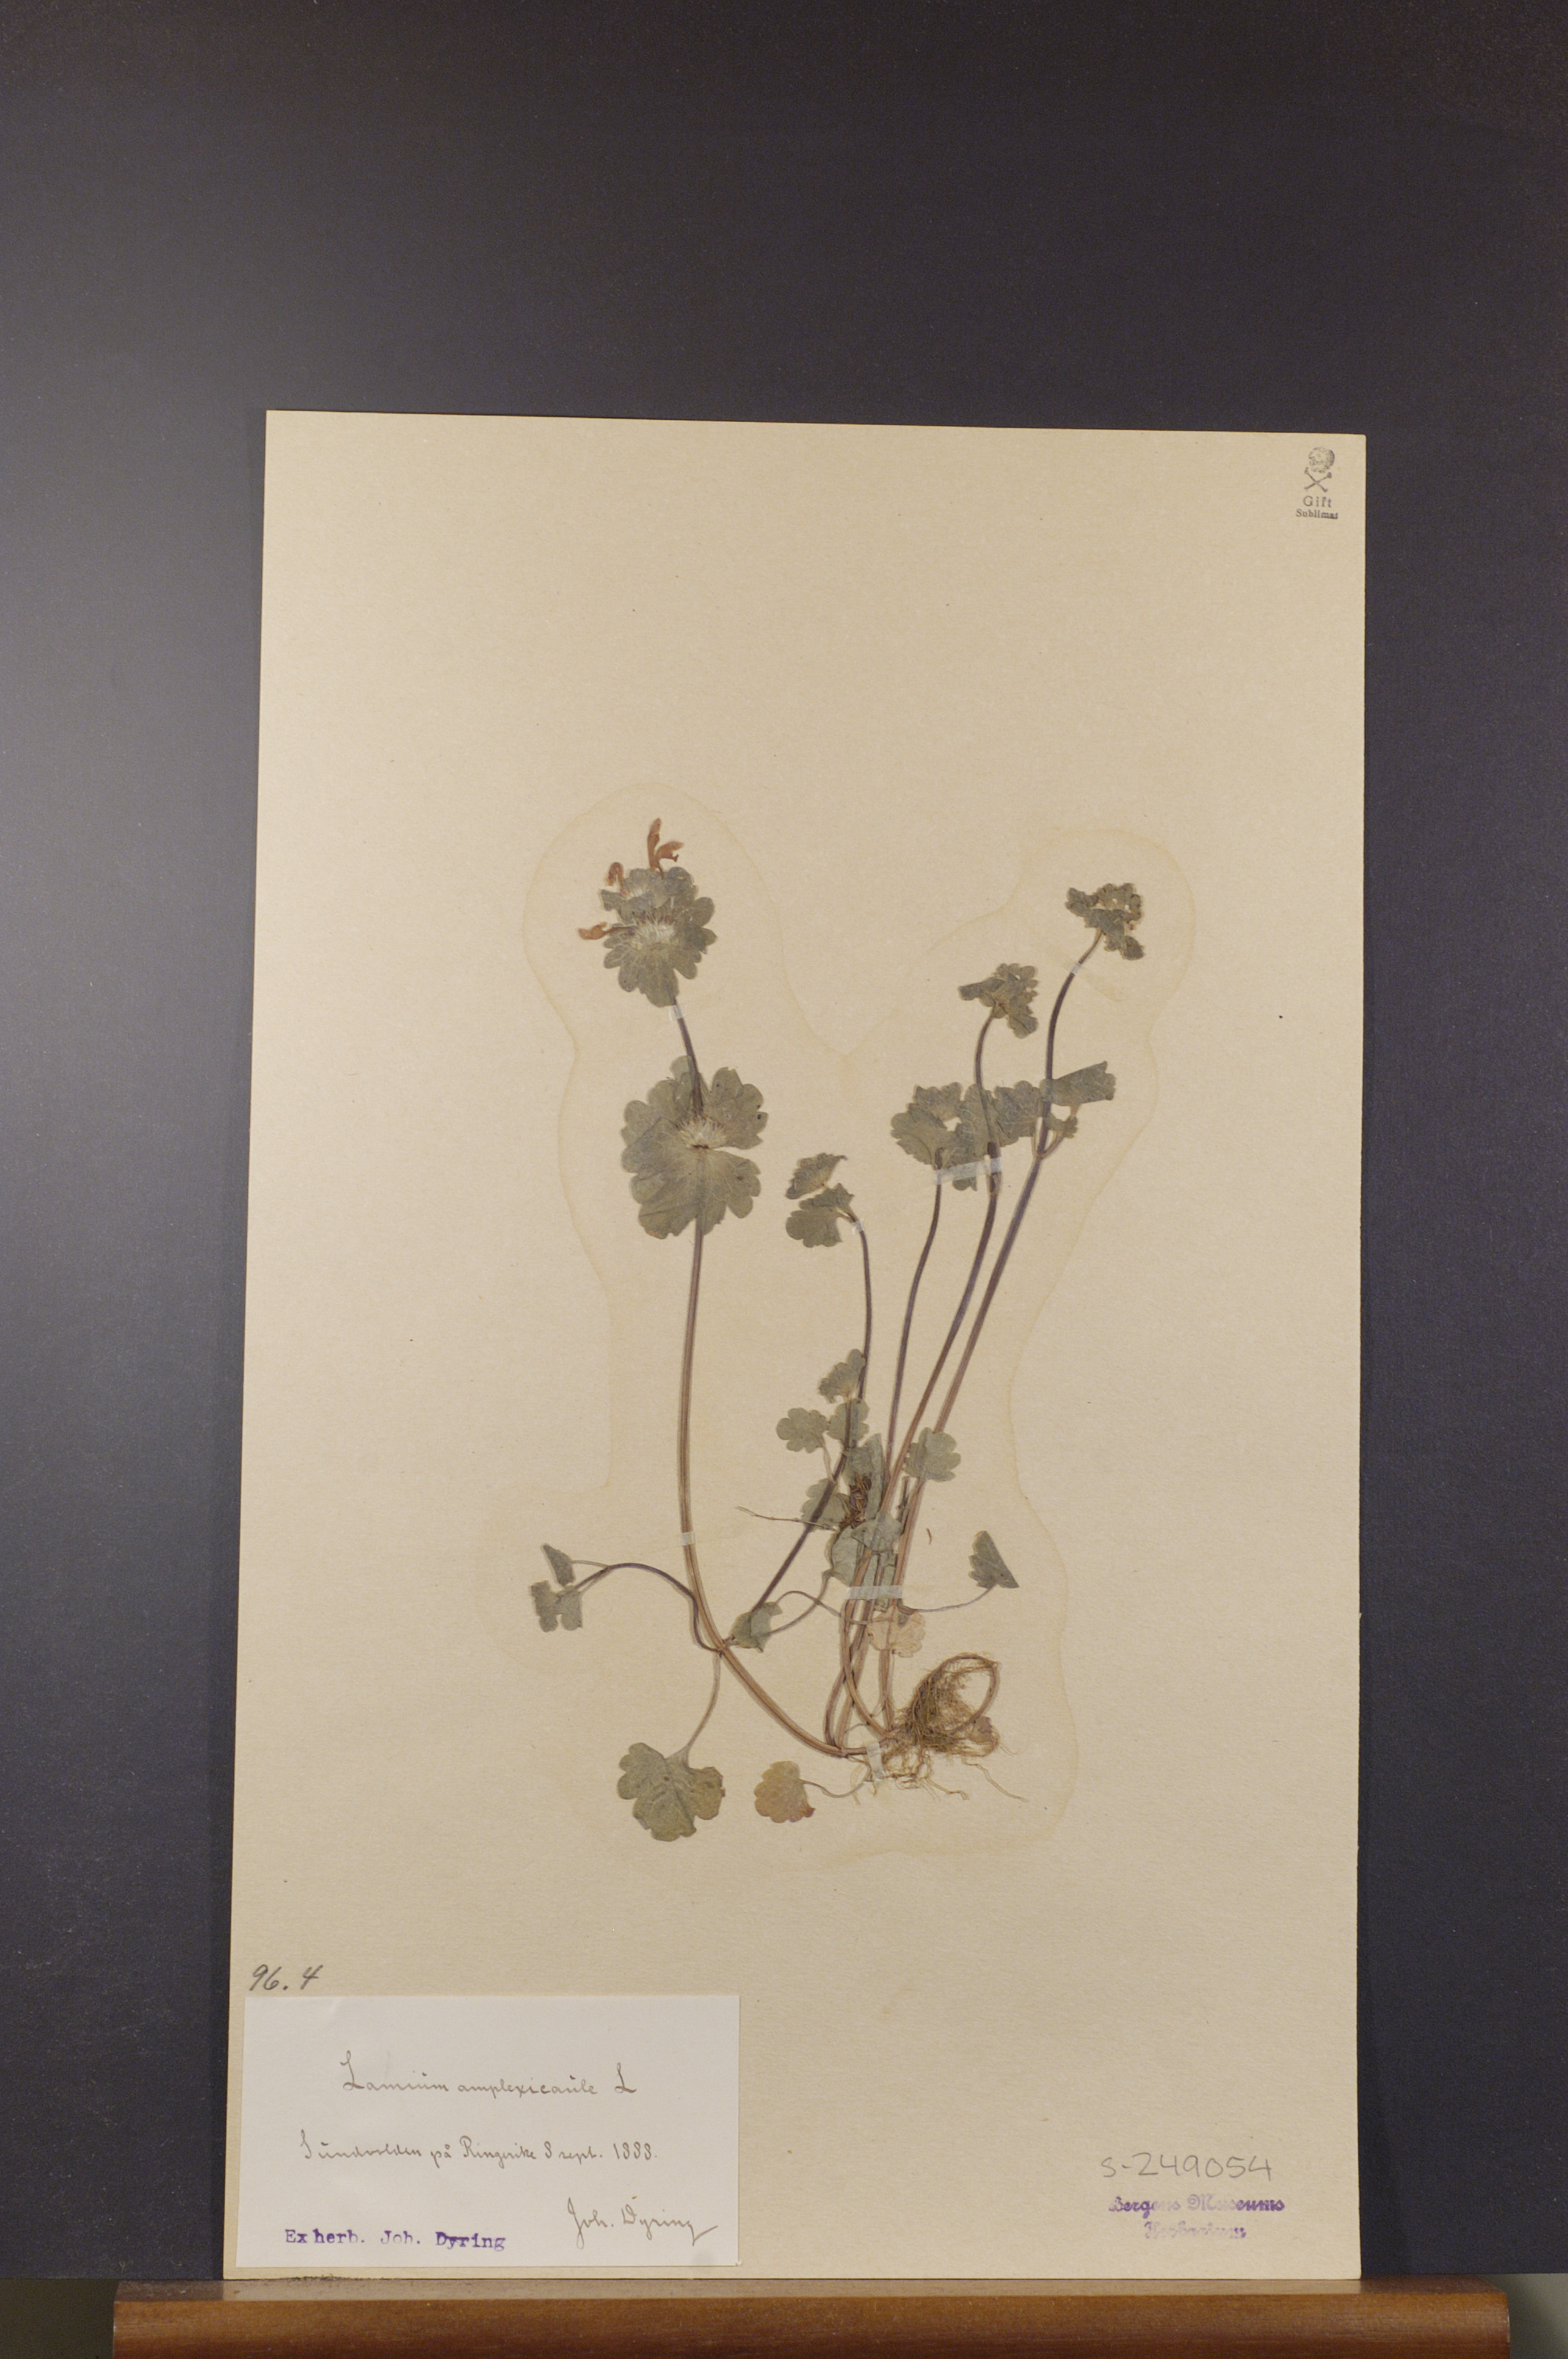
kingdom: Plantae
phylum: Tracheophyta
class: Magnoliopsida
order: Lamiales
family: Lamiaceae
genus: Lamium
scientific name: Lamium amplexicaule
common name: Henbit dead-nettle
